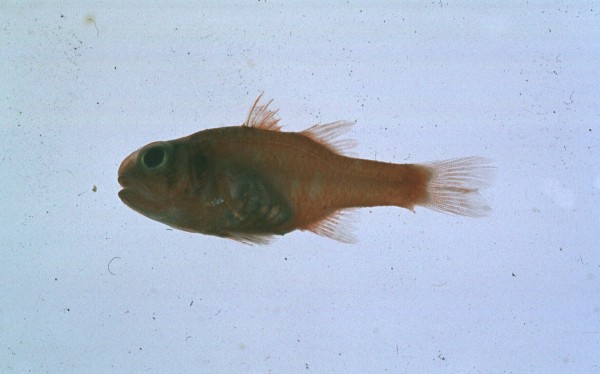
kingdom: Animalia
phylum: Chordata
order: Perciformes
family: Apogonidae
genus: Apogon
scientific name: Apogon coccineus
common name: Ruby cardinalfish
